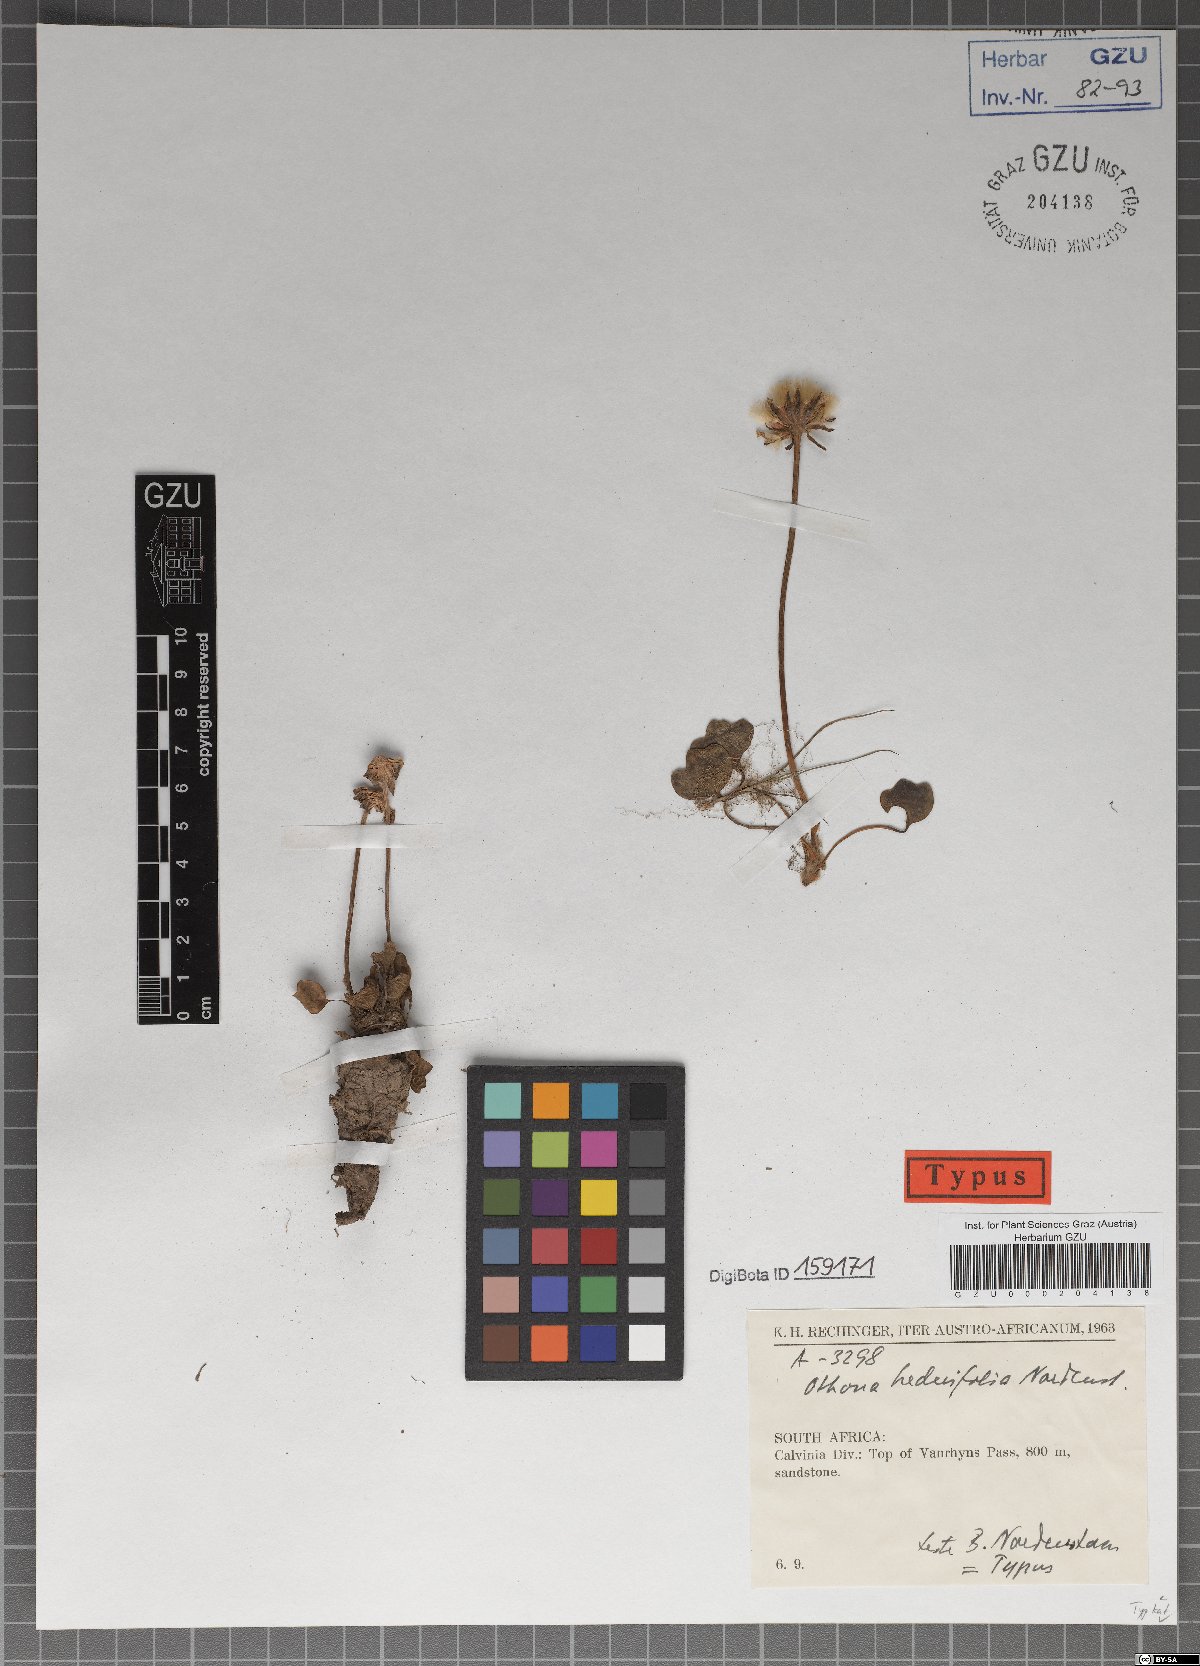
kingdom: Plantae
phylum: Tracheophyta
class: Magnoliopsida
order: Asterales
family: Asteraceae
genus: Othonna
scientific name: Othonna hederifolia
